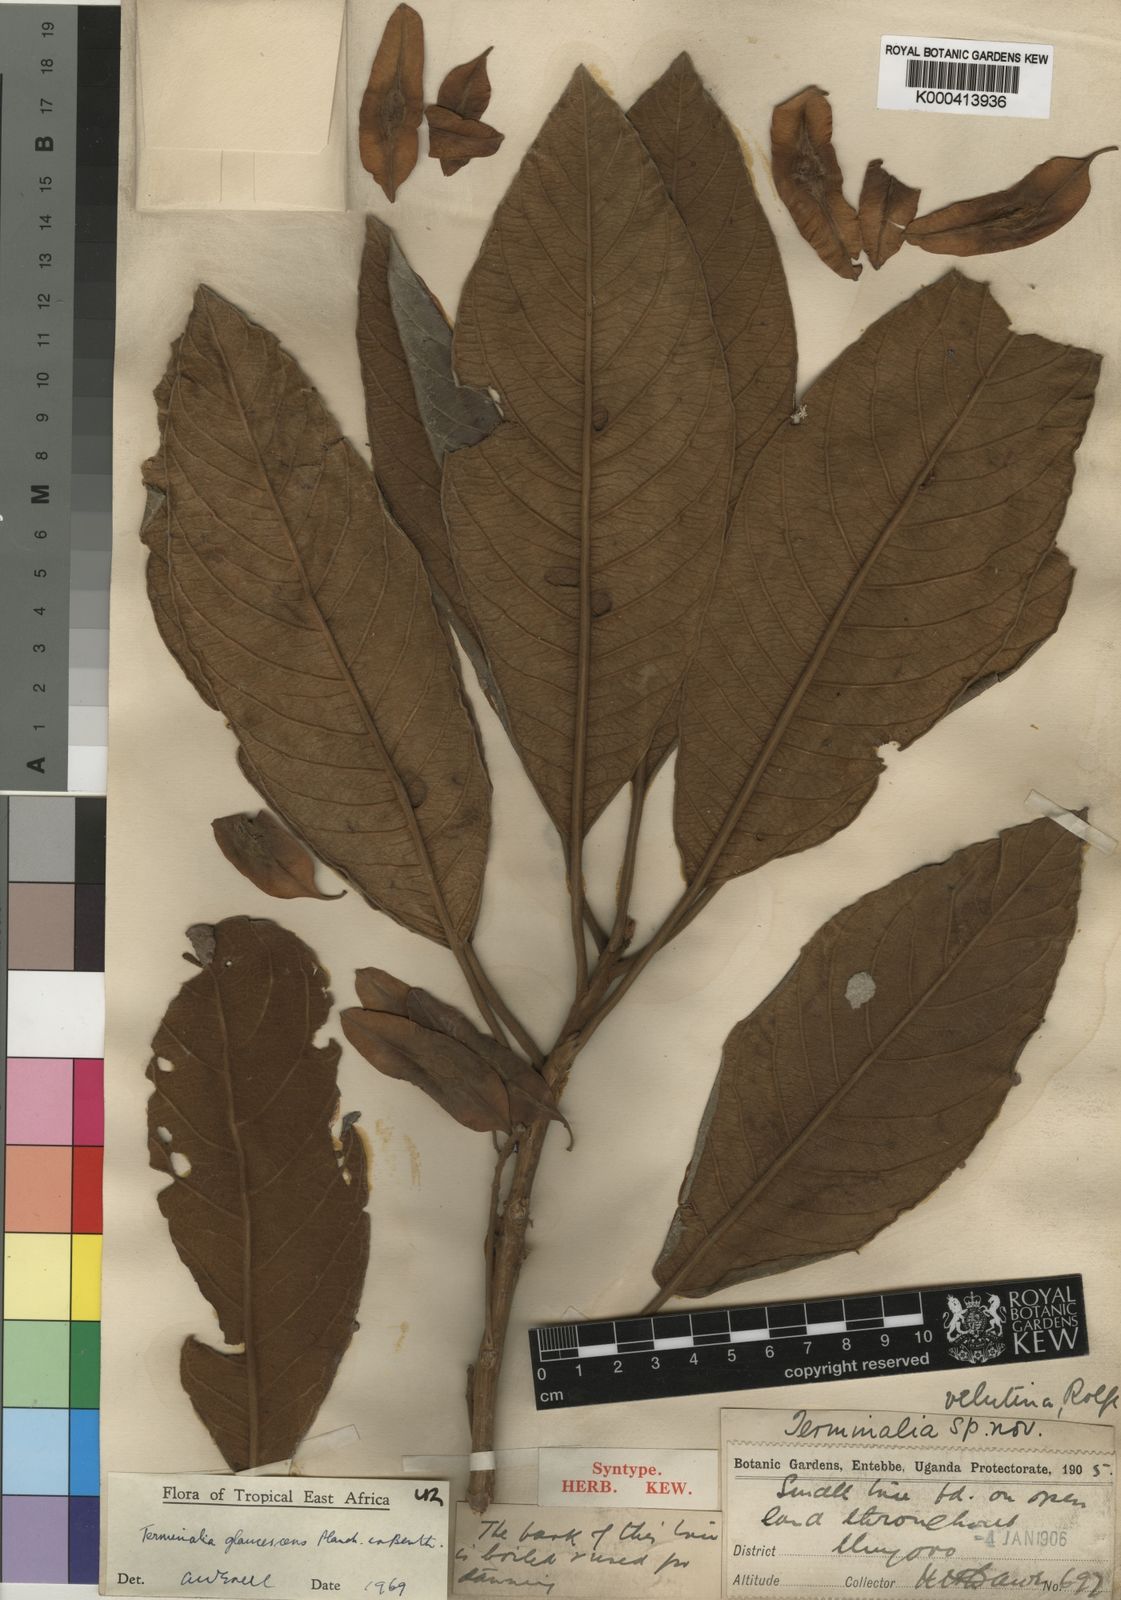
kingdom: Plantae
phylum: Tracheophyta
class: Magnoliopsida
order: Myrtales
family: Combretaceae
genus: Terminalia
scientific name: Terminalia schimperiana
